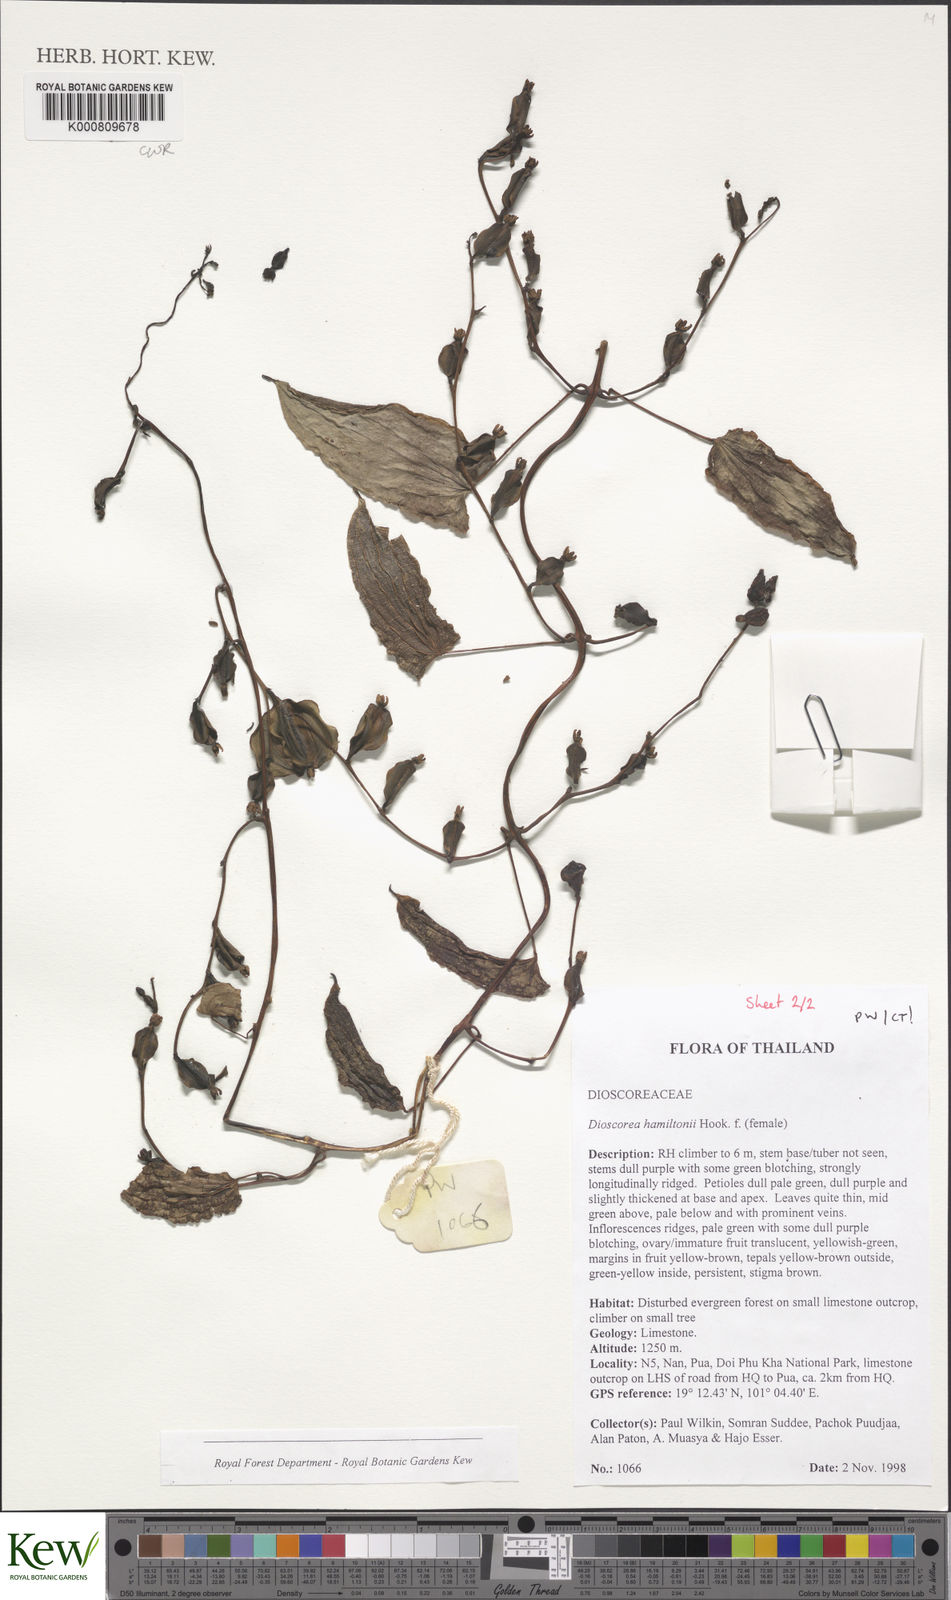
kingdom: Plantae
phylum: Tracheophyta
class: Liliopsida
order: Dioscoreales
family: Dioscoreaceae
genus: Dioscorea
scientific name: Dioscorea hamiltonii
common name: Mountain yam
